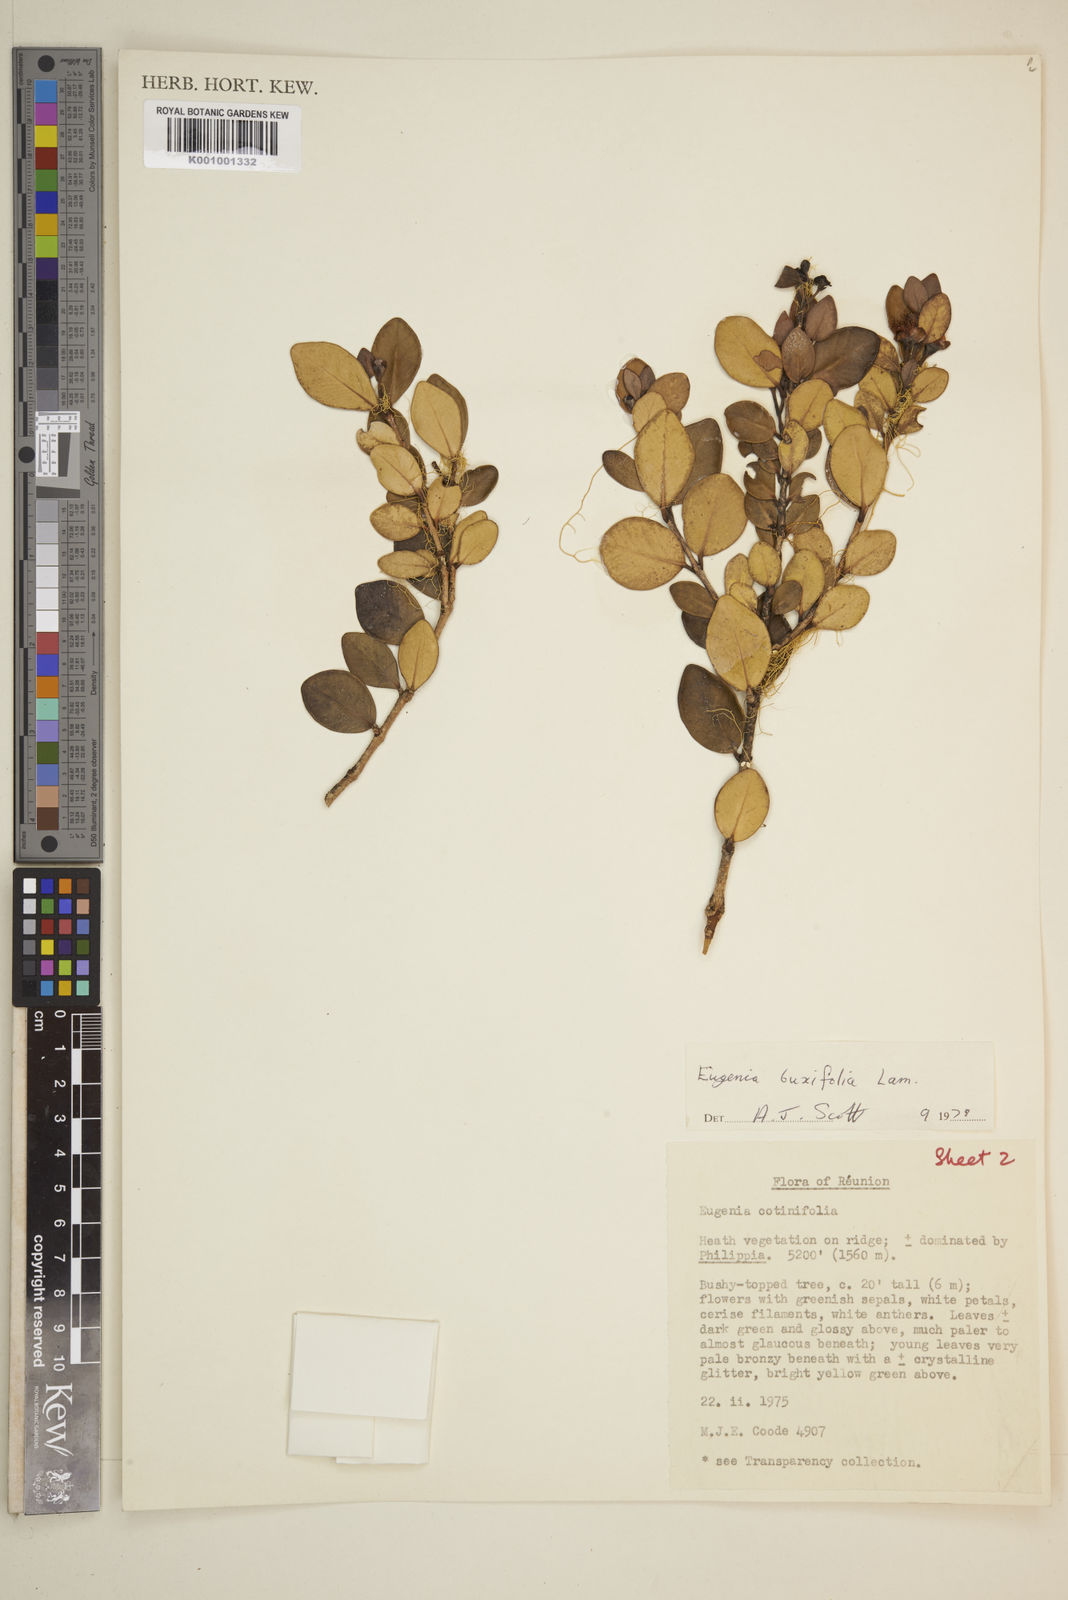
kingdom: Plantae
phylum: Tracheophyta
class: Magnoliopsida
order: Myrtales
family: Myrtaceae
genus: Eugenia
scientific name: Eugenia buxifolia
